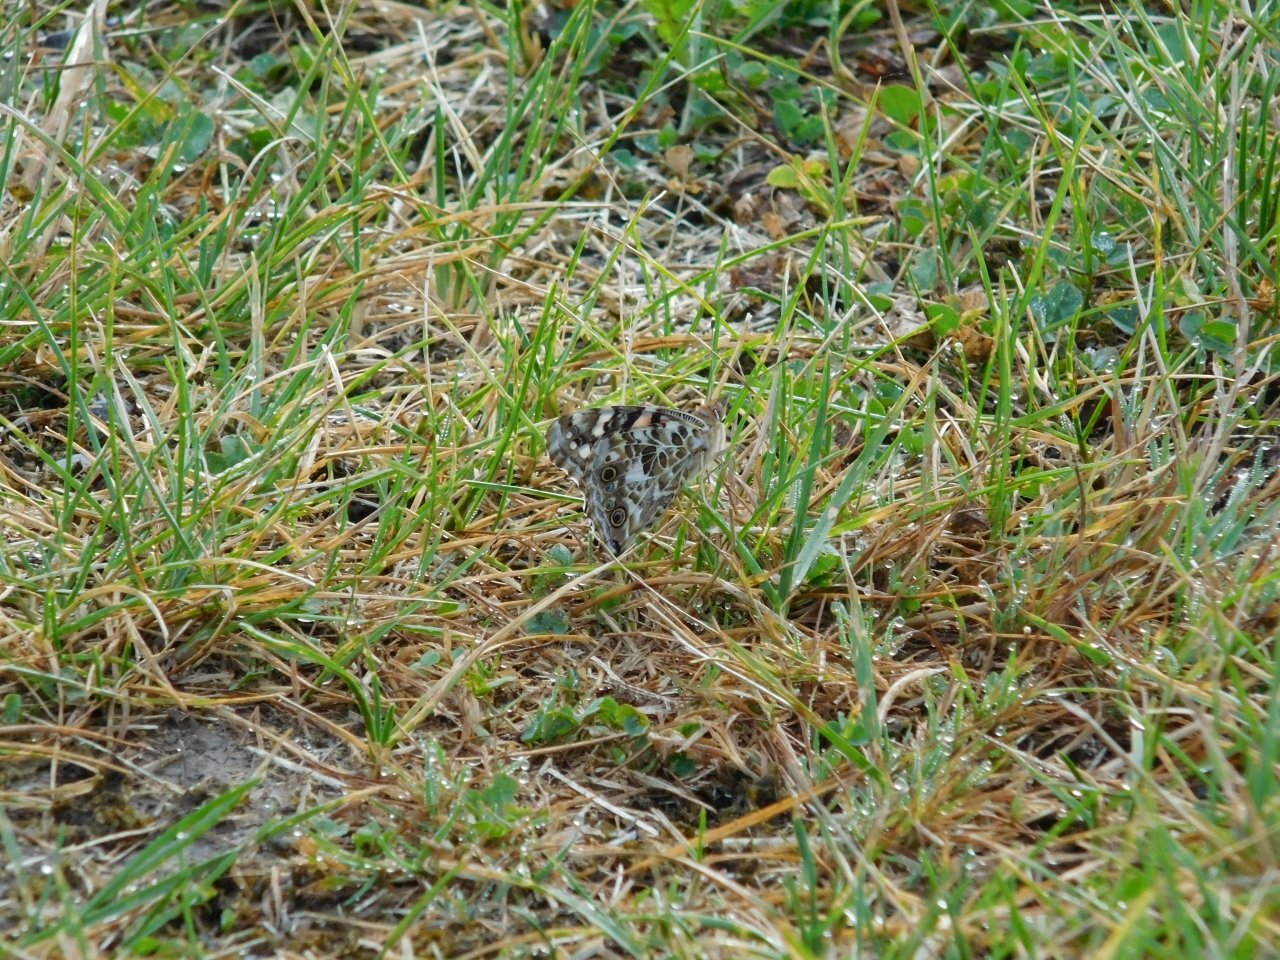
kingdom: Animalia
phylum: Arthropoda
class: Insecta
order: Lepidoptera
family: Nymphalidae
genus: Vanessa
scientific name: Vanessa cardui
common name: Painted Lady
